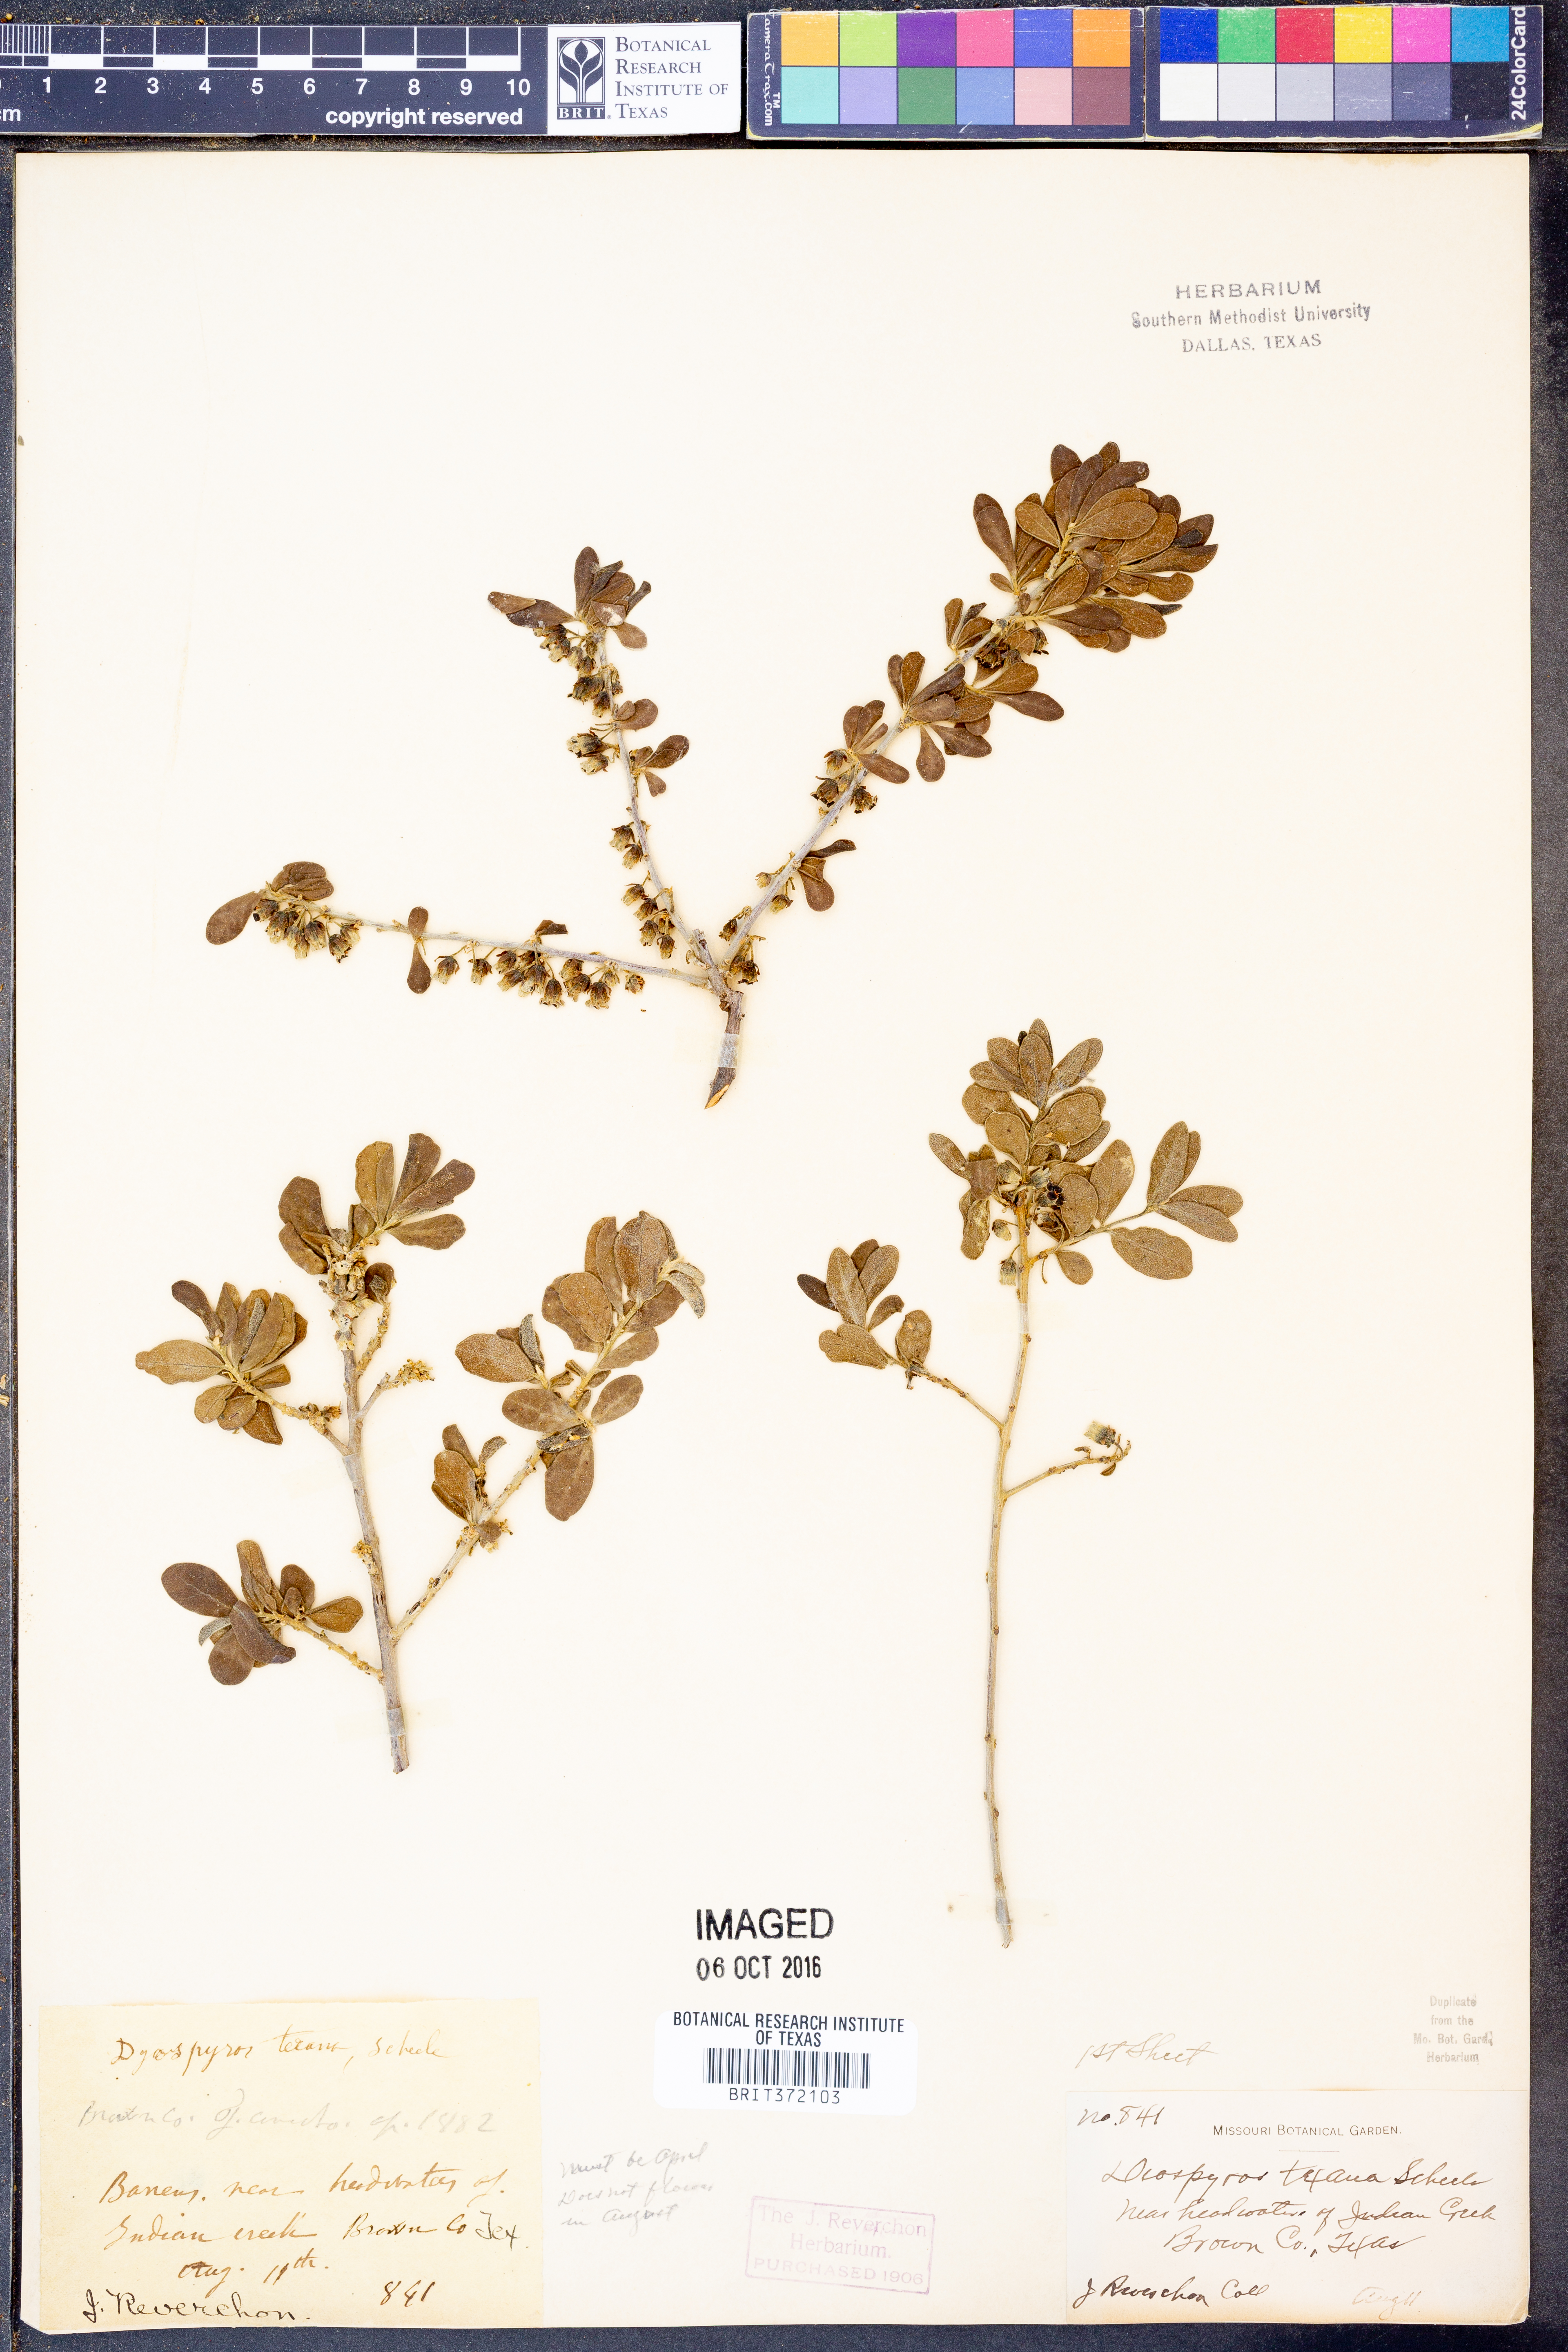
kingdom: Plantae
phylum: Tracheophyta
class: Magnoliopsida
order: Ericales
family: Ebenaceae
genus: Diospyros
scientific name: Diospyros texana
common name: Texas persimmon
